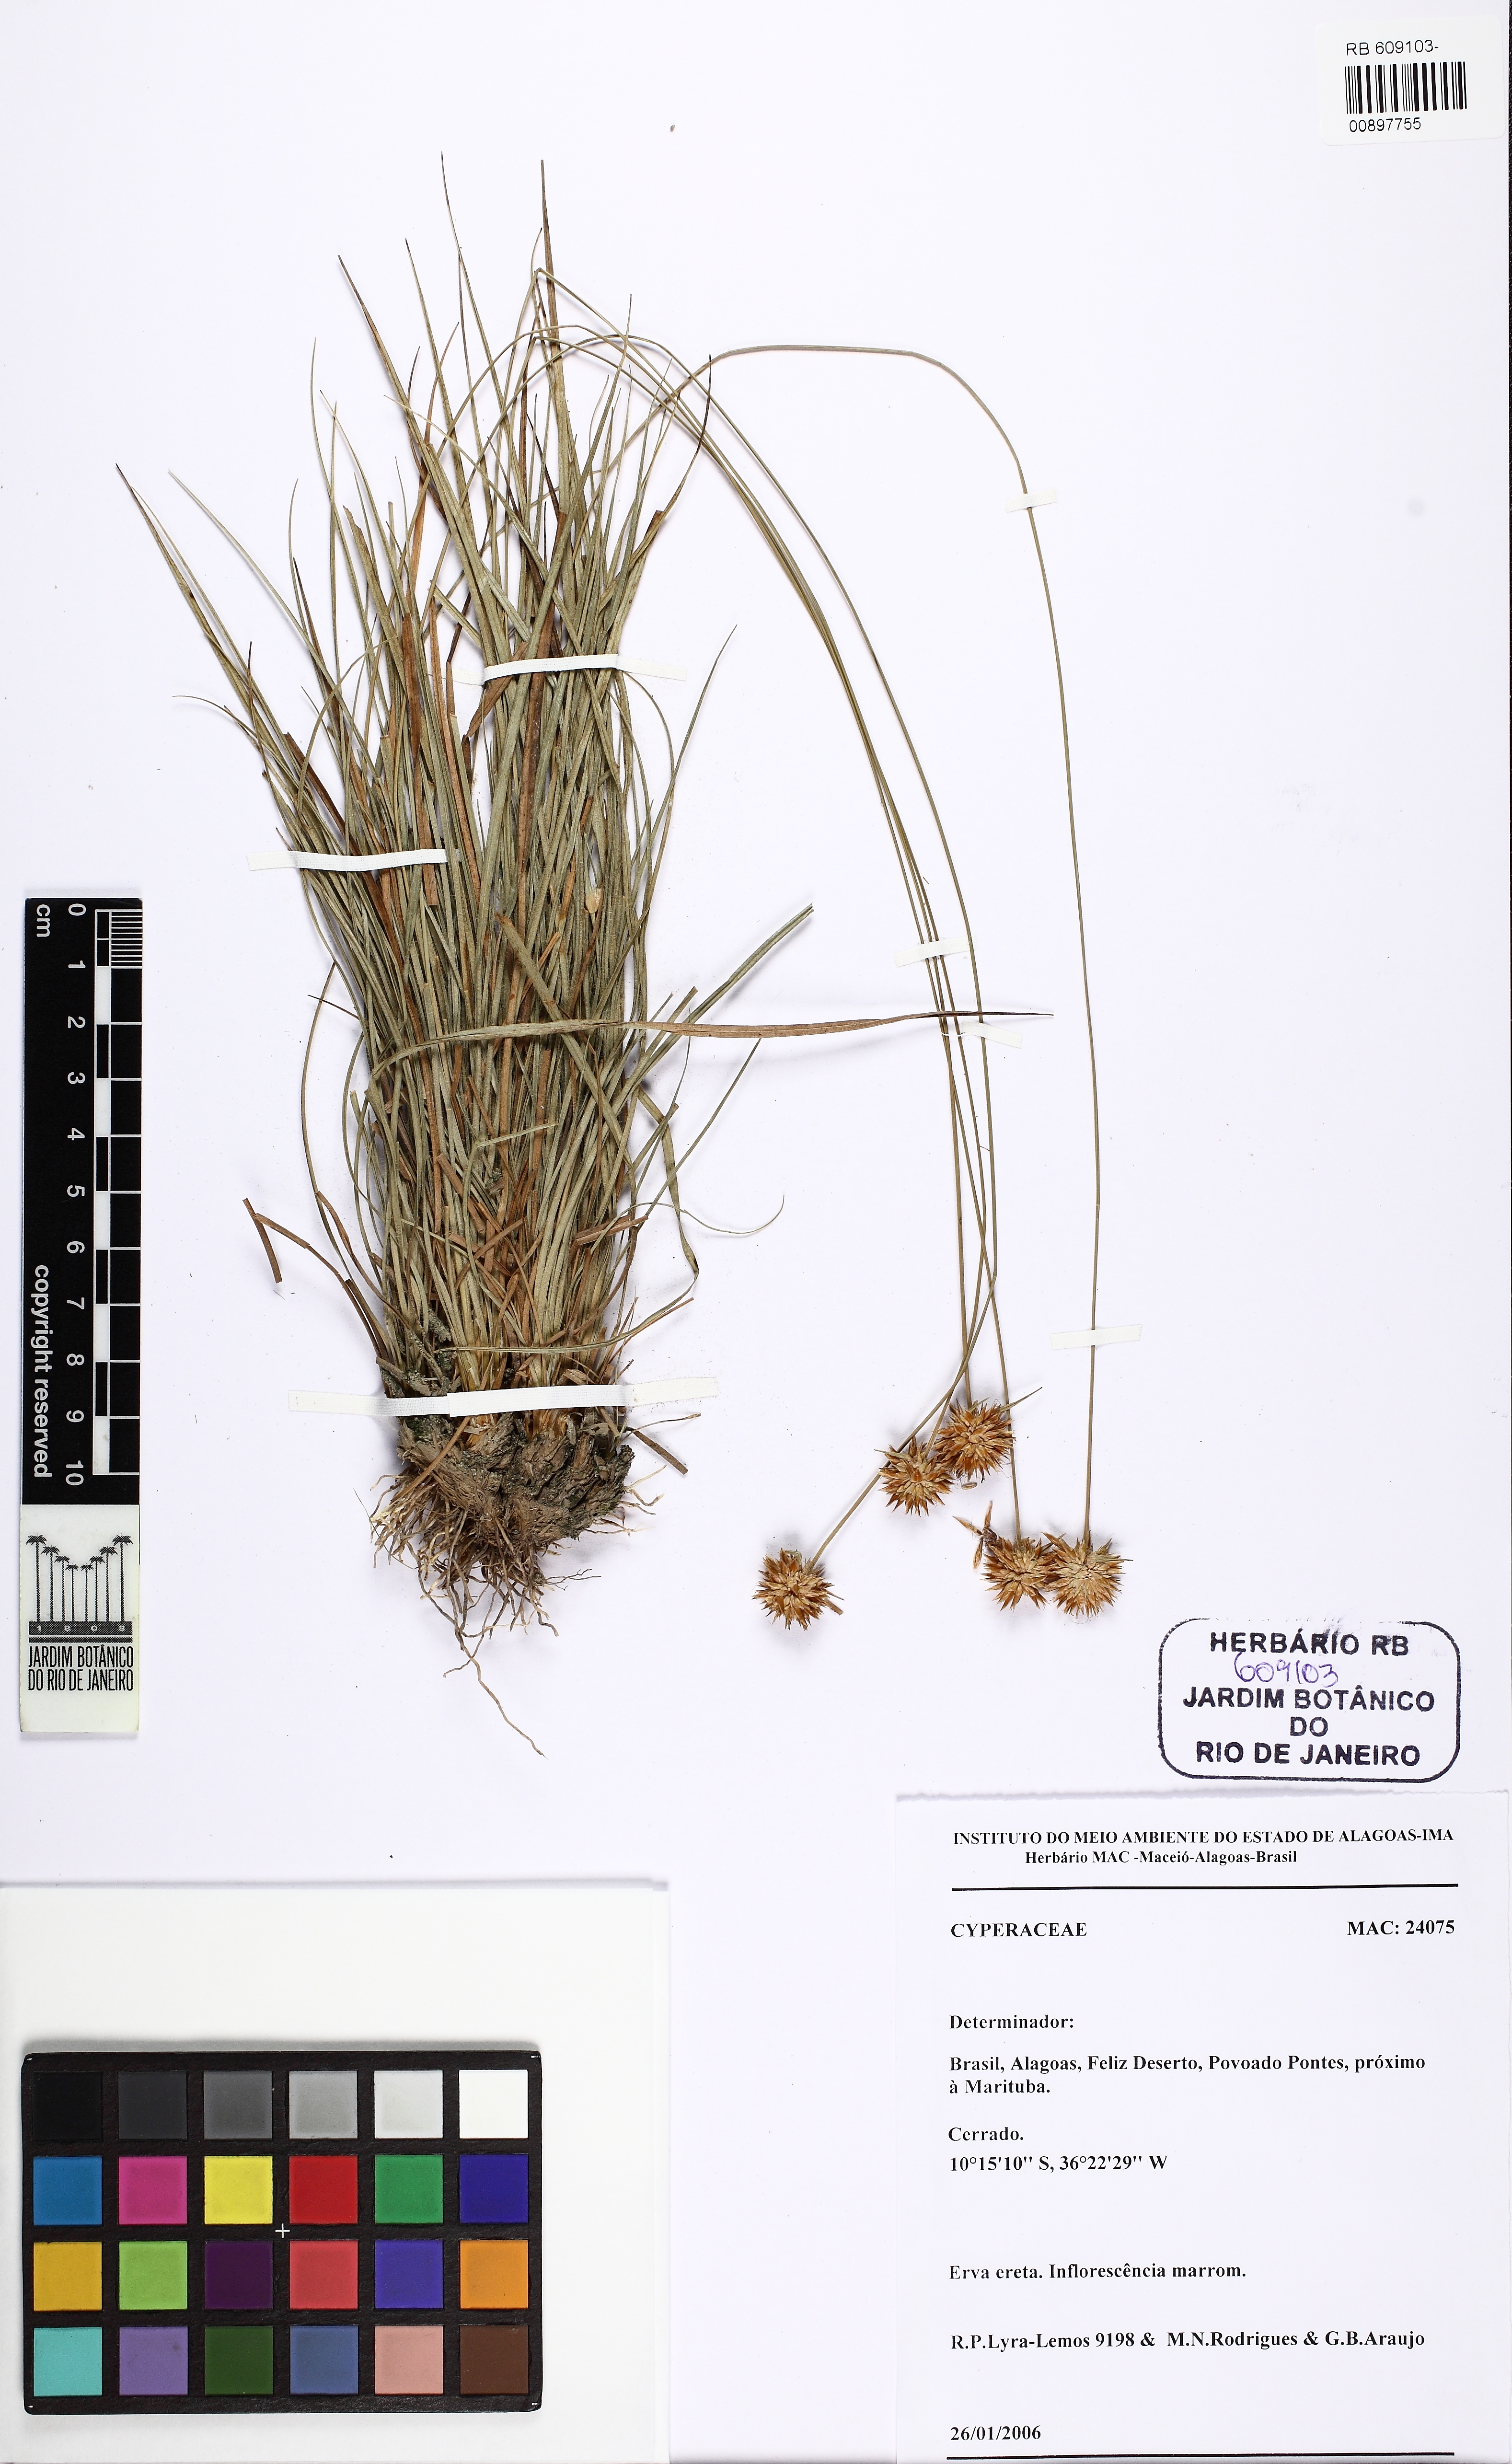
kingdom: Plantae
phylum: Tracheophyta
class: Liliopsida
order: Poales
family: Cyperaceae
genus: Rhynchospora
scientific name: Rhynchospora
